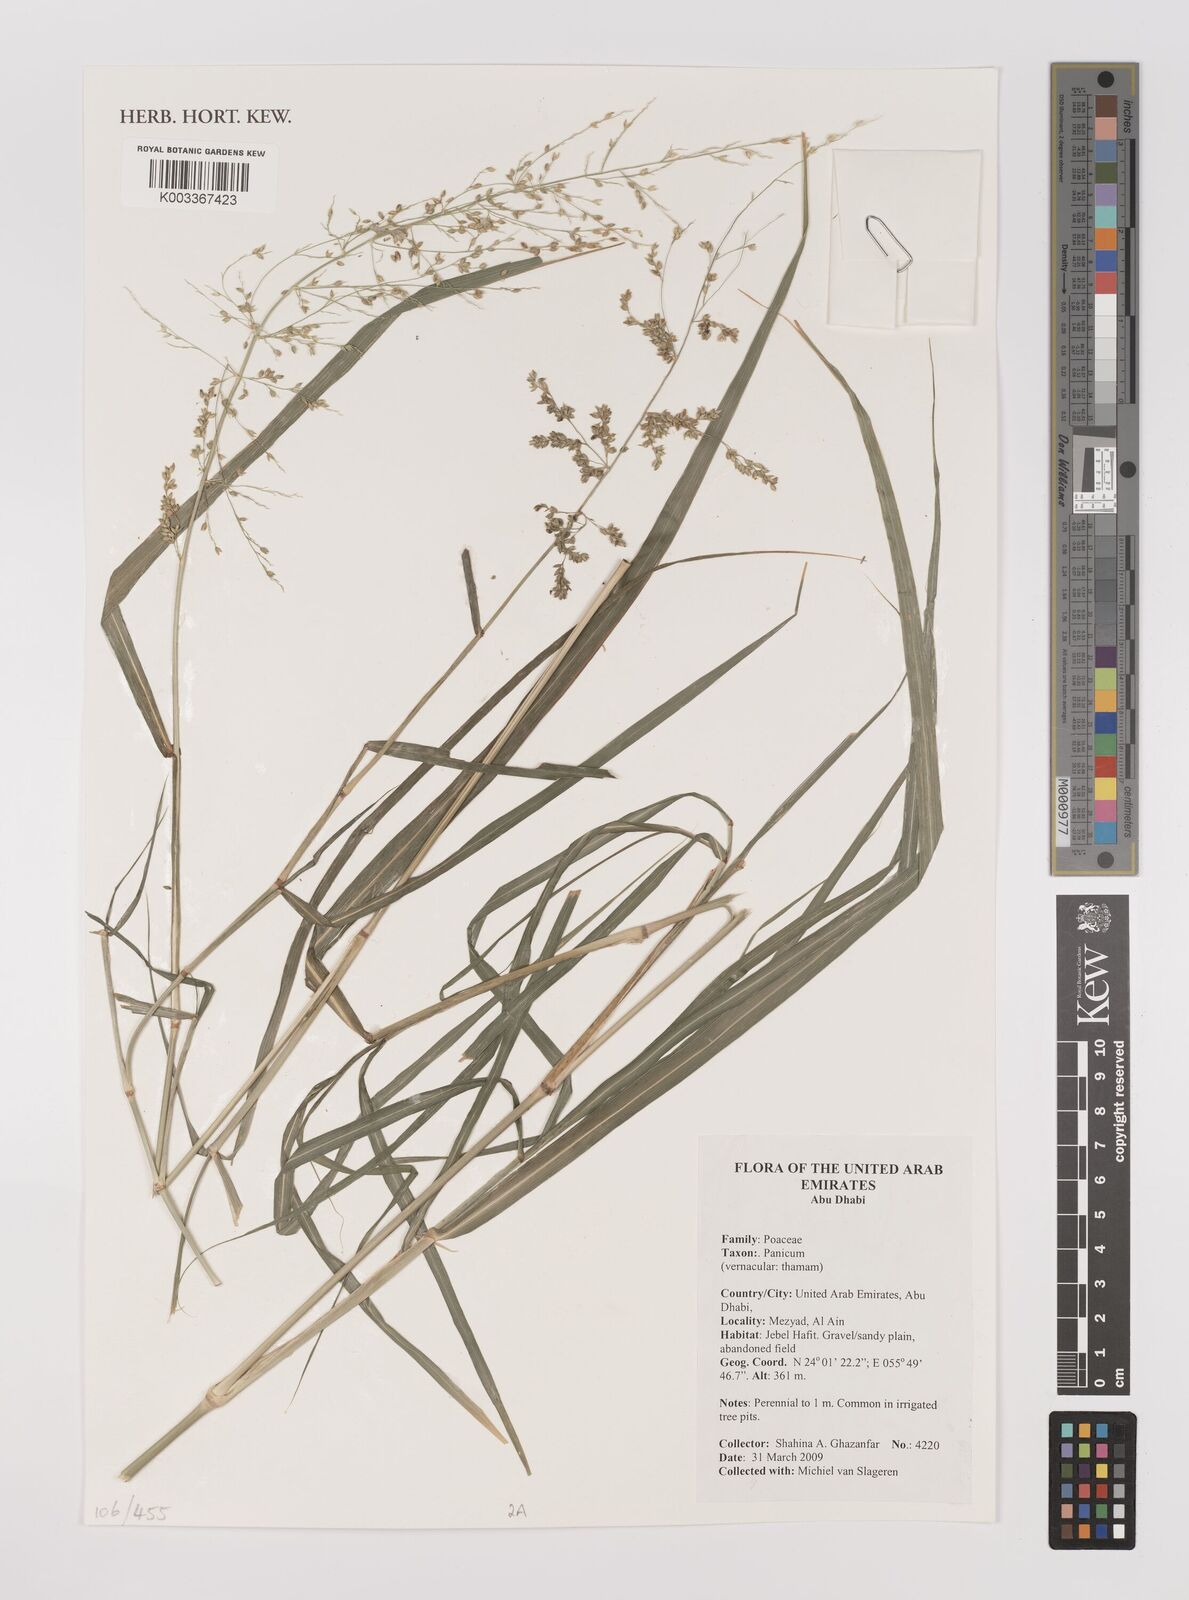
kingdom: Plantae
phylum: Tracheophyta
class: Liliopsida
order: Poales
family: Poaceae
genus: Panicum
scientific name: Panicum
